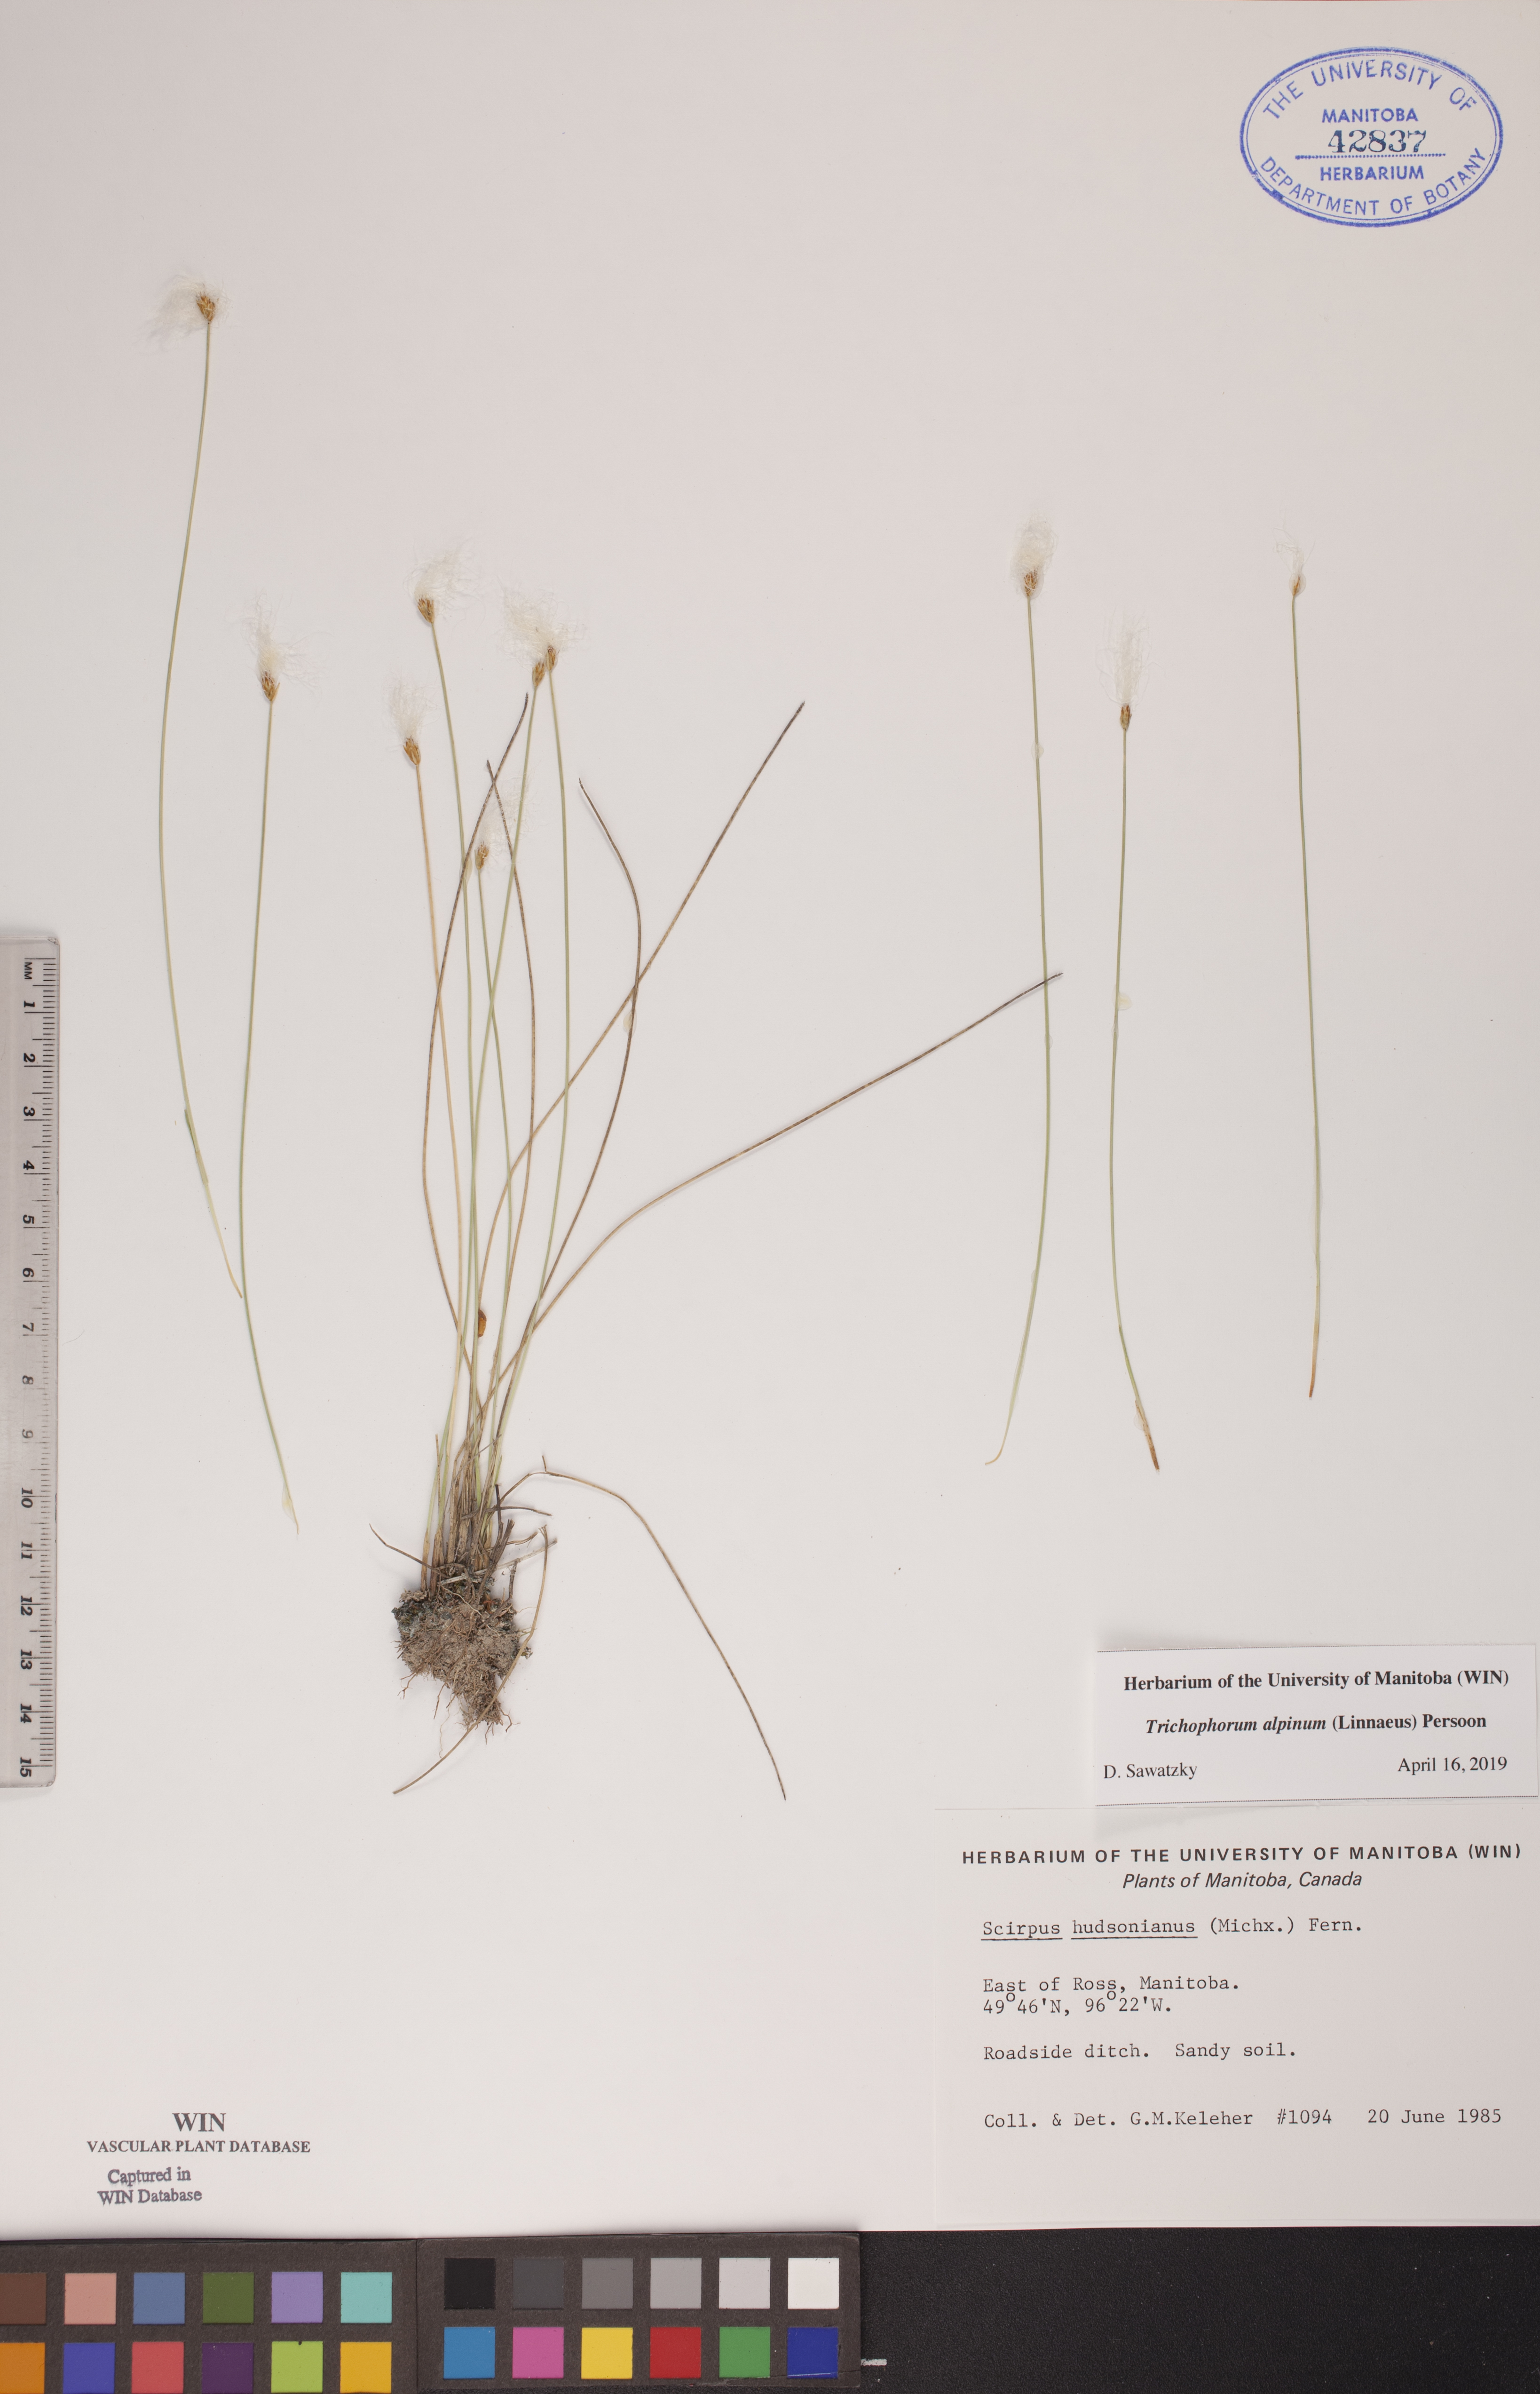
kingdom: Plantae
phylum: Tracheophyta
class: Liliopsida
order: Poales
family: Cyperaceae
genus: Trichophorum
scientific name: Trichophorum alpinum
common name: Alpine bulrush
